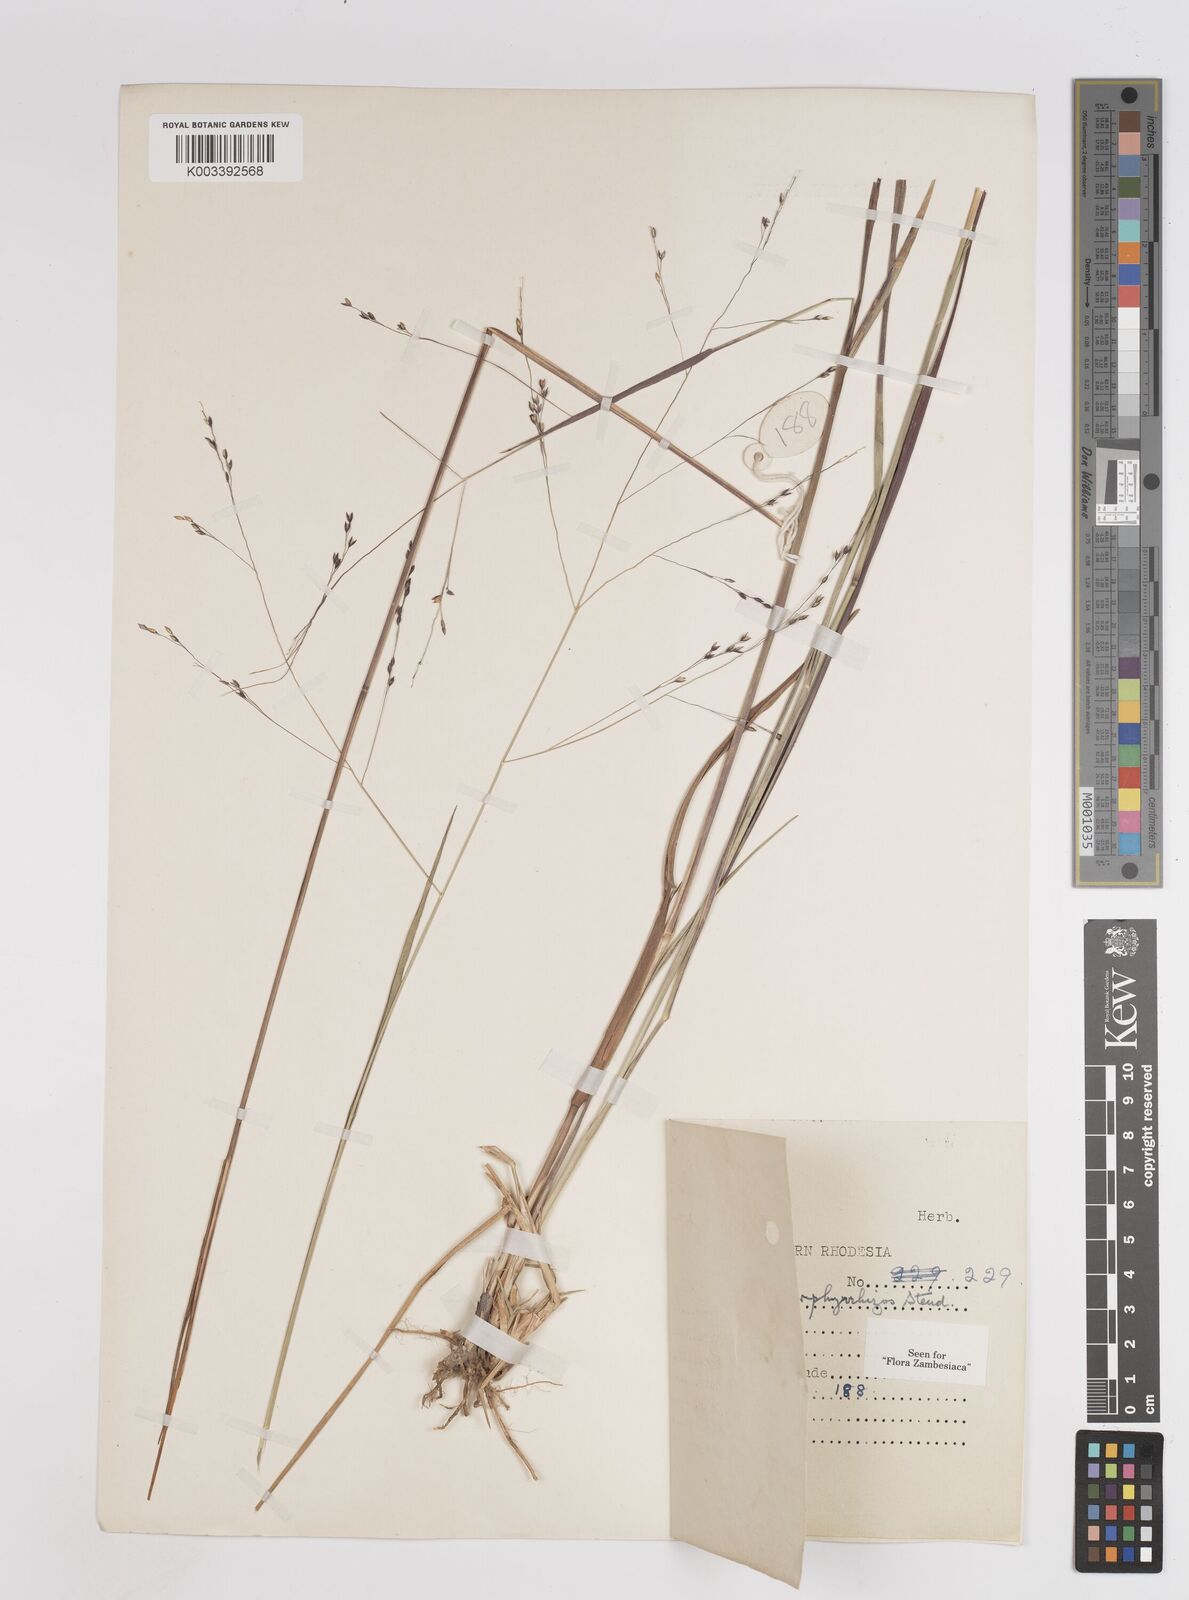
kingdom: Plantae
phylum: Tracheophyta
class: Liliopsida
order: Poales
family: Poaceae
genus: Panicum
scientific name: Panicum porphyrrhizos
